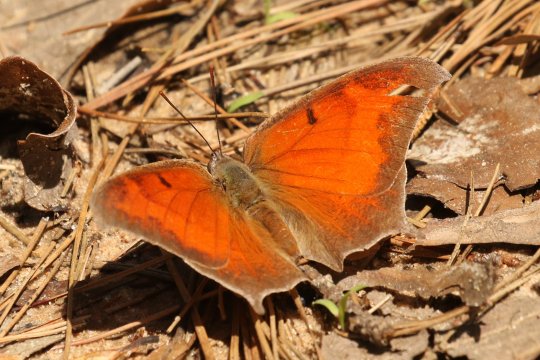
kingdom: Animalia
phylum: Arthropoda
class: Insecta
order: Lepidoptera
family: Nymphalidae
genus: Anaea
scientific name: Anaea andria
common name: Goatweed Leafwing
